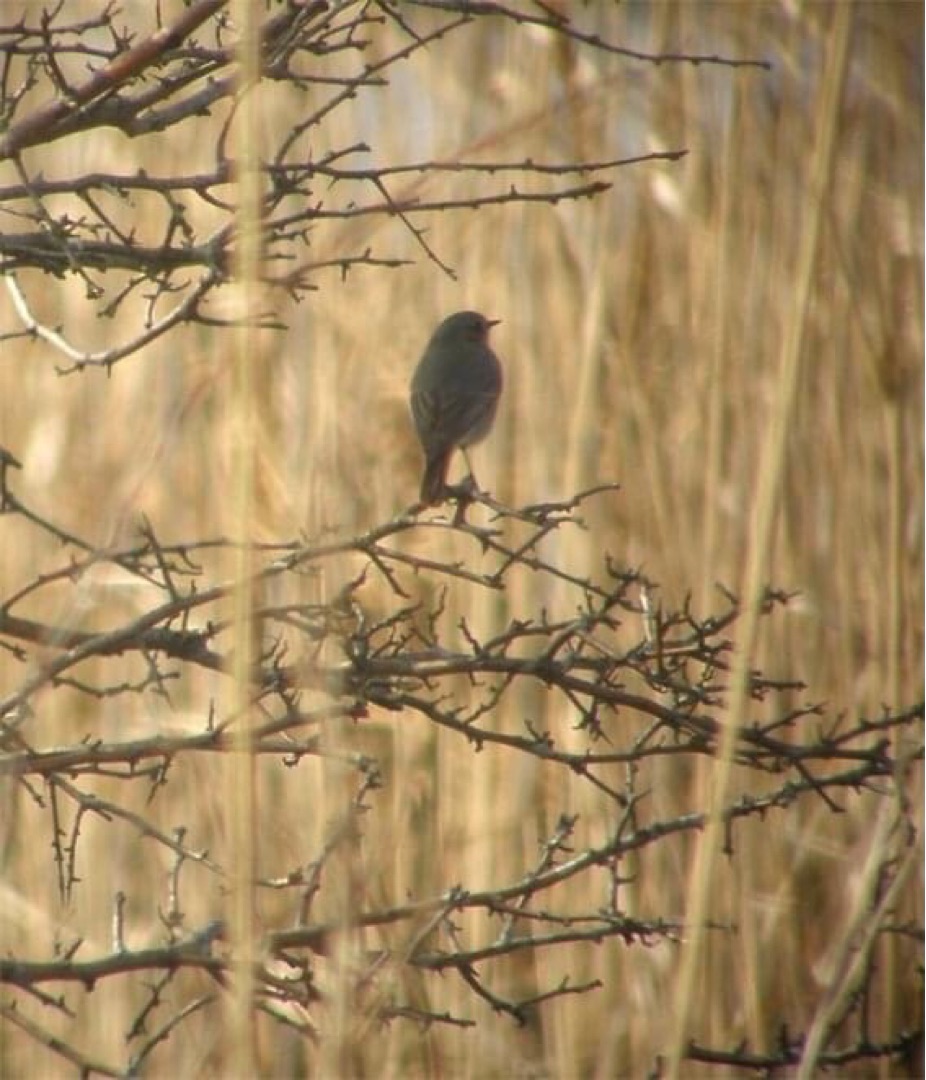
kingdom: Animalia
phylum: Chordata
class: Aves
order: Passeriformes
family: Muscicapidae
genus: Phoenicurus
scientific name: Phoenicurus ochruros
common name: Husrødstjert
